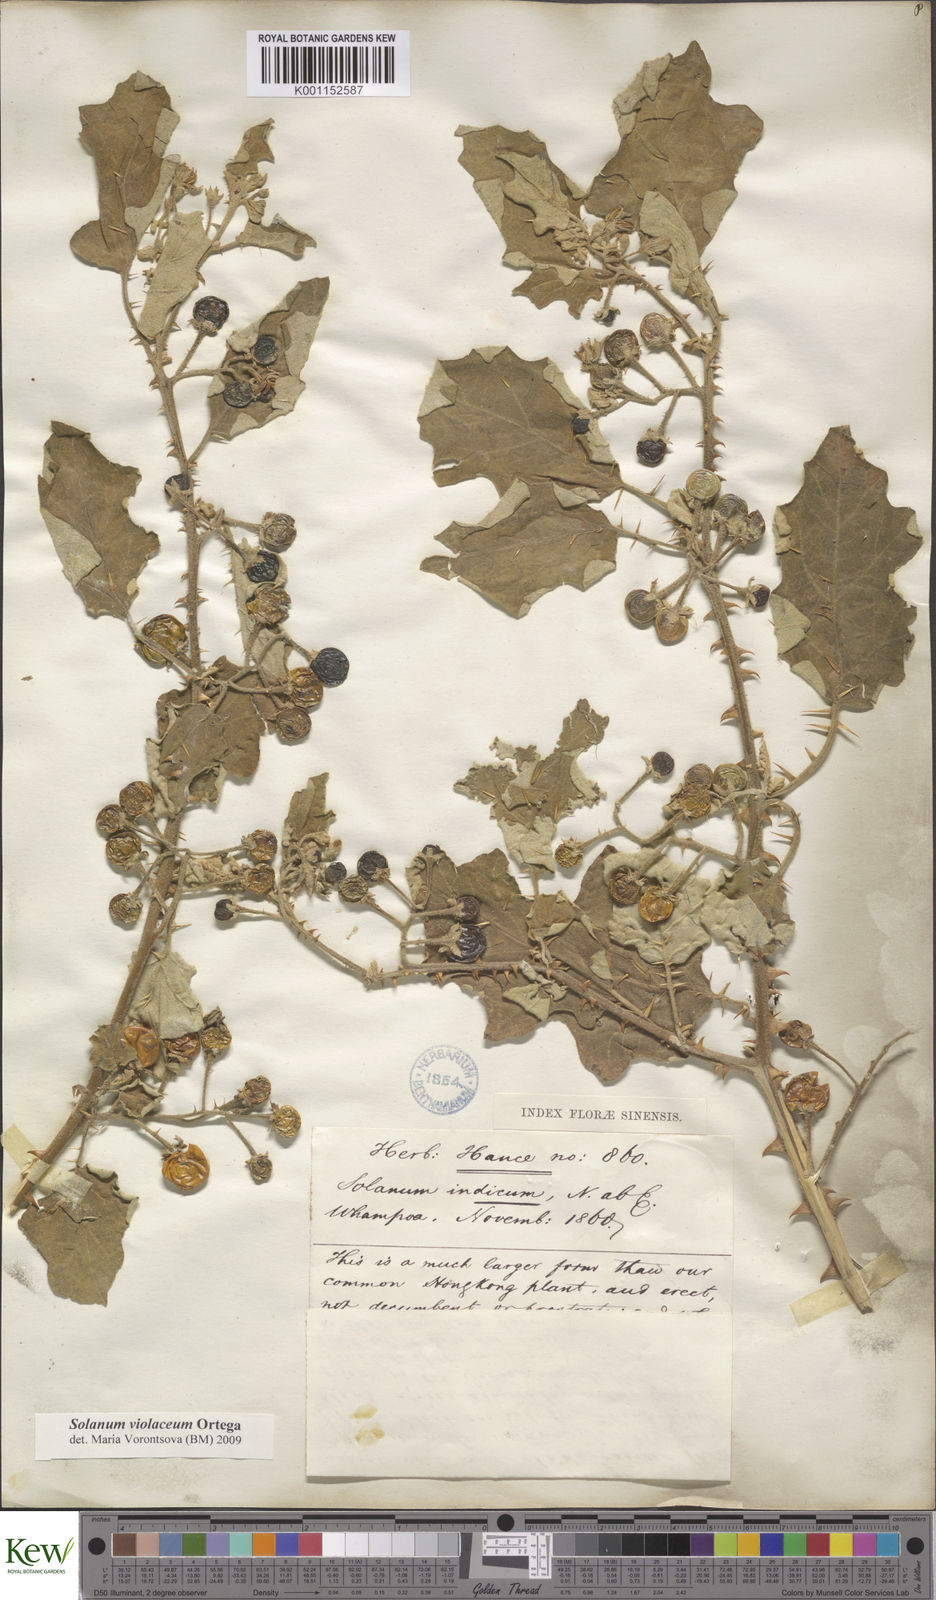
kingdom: Plantae
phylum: Tracheophyta
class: Magnoliopsida
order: Solanales
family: Solanaceae
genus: Solanum
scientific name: Solanum violaceum
